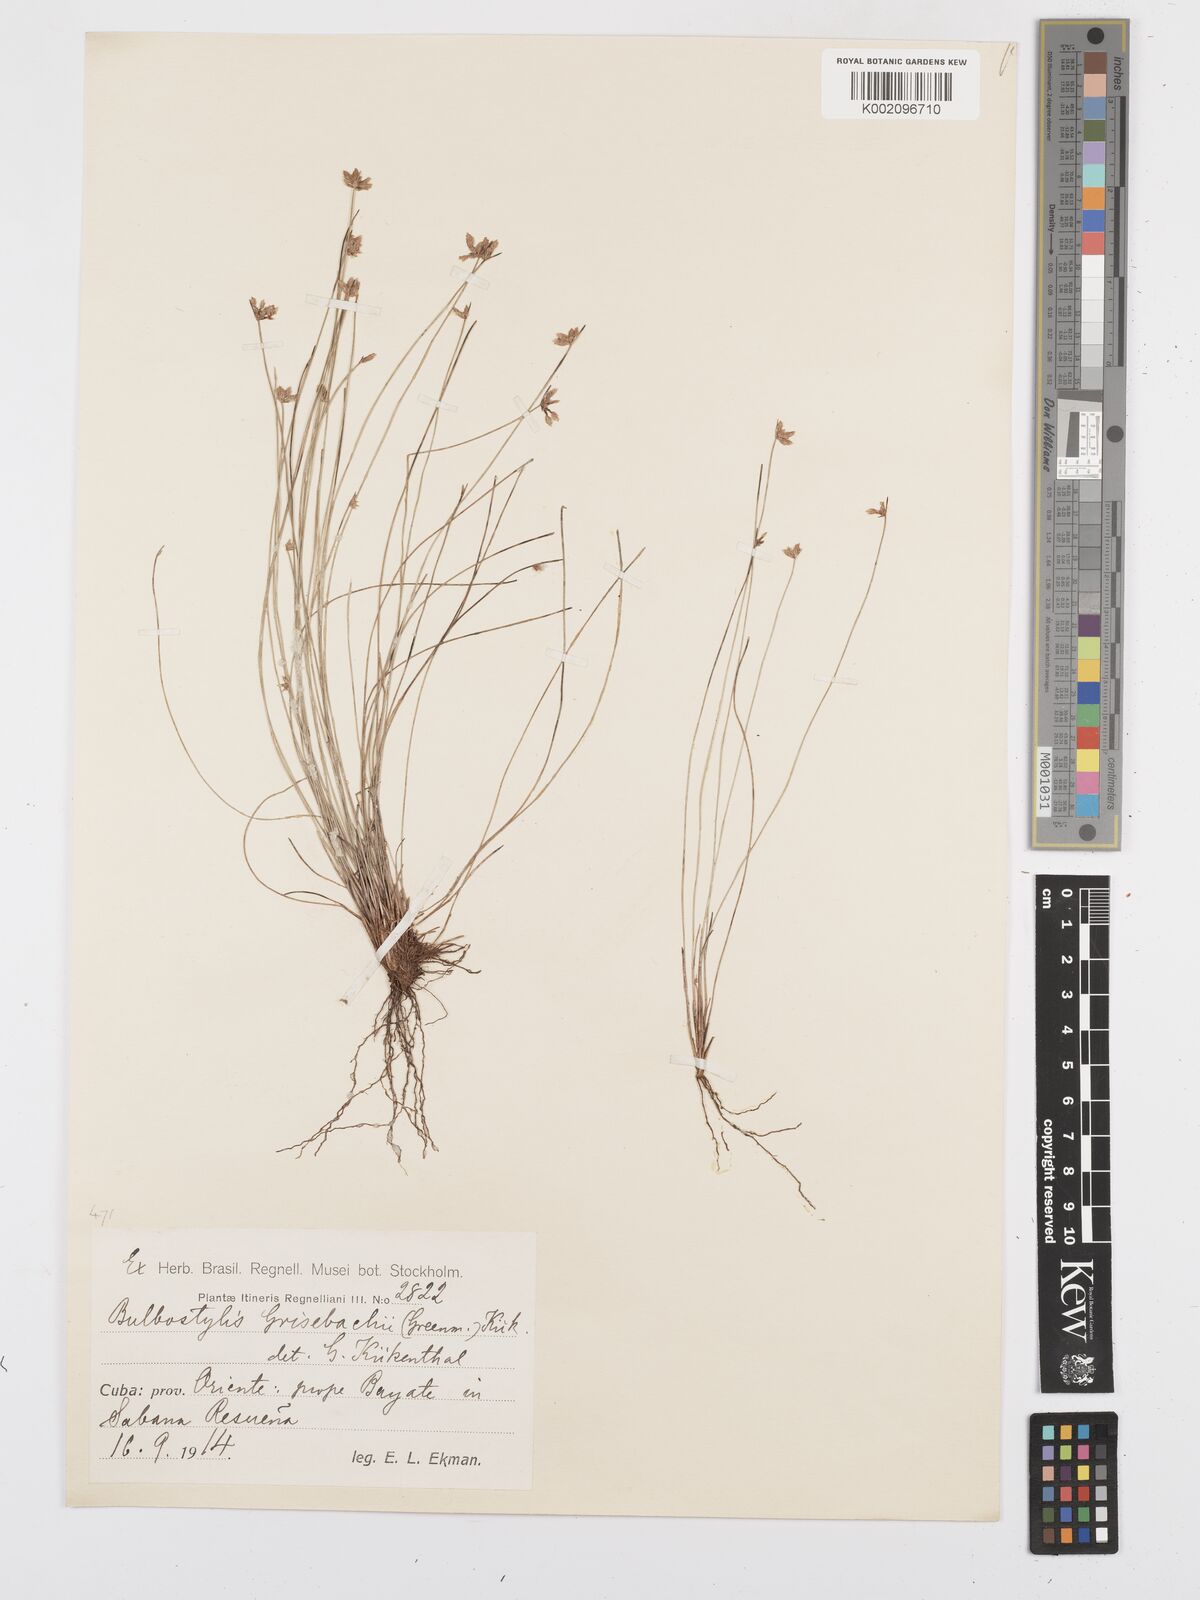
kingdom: Plantae
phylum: Tracheophyta
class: Liliopsida
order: Poales
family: Cyperaceae
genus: Bulbostylis
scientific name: Bulbostylis setacea
